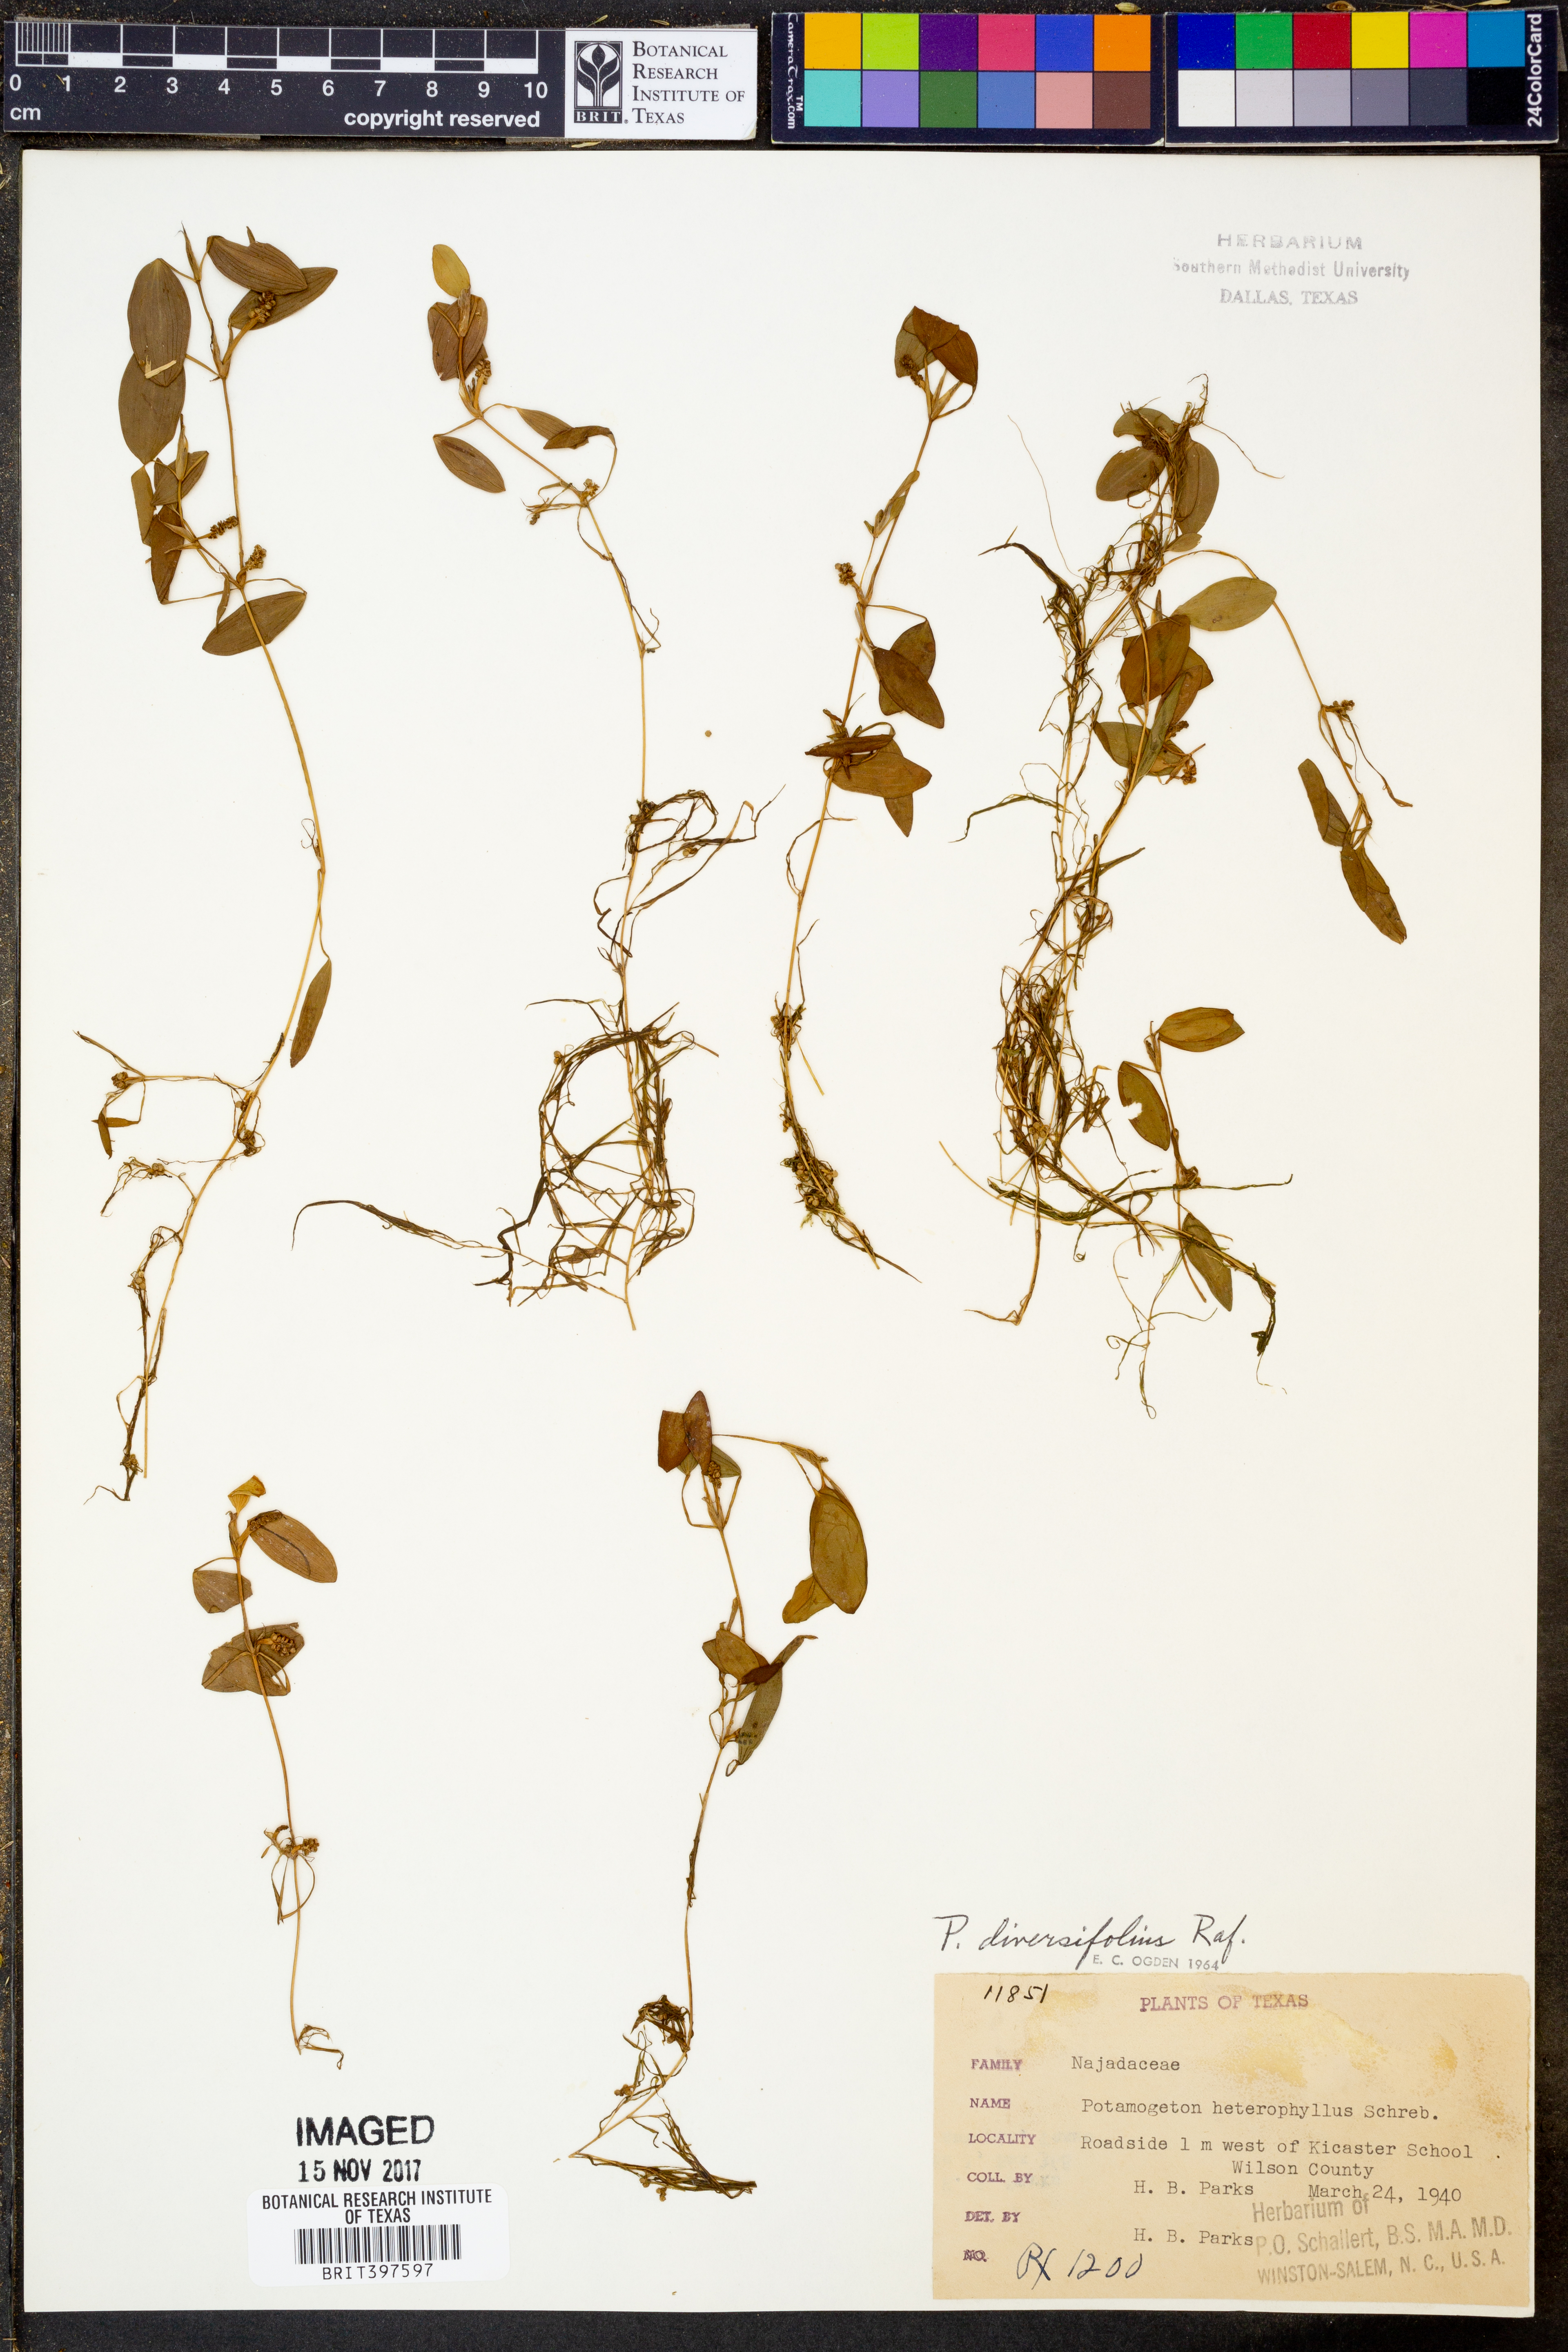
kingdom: Plantae
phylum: Tracheophyta
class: Liliopsida
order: Alismatales
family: Potamogetonaceae
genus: Potamogeton
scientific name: Potamogeton diversifolius
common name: Water-thread pondweed
